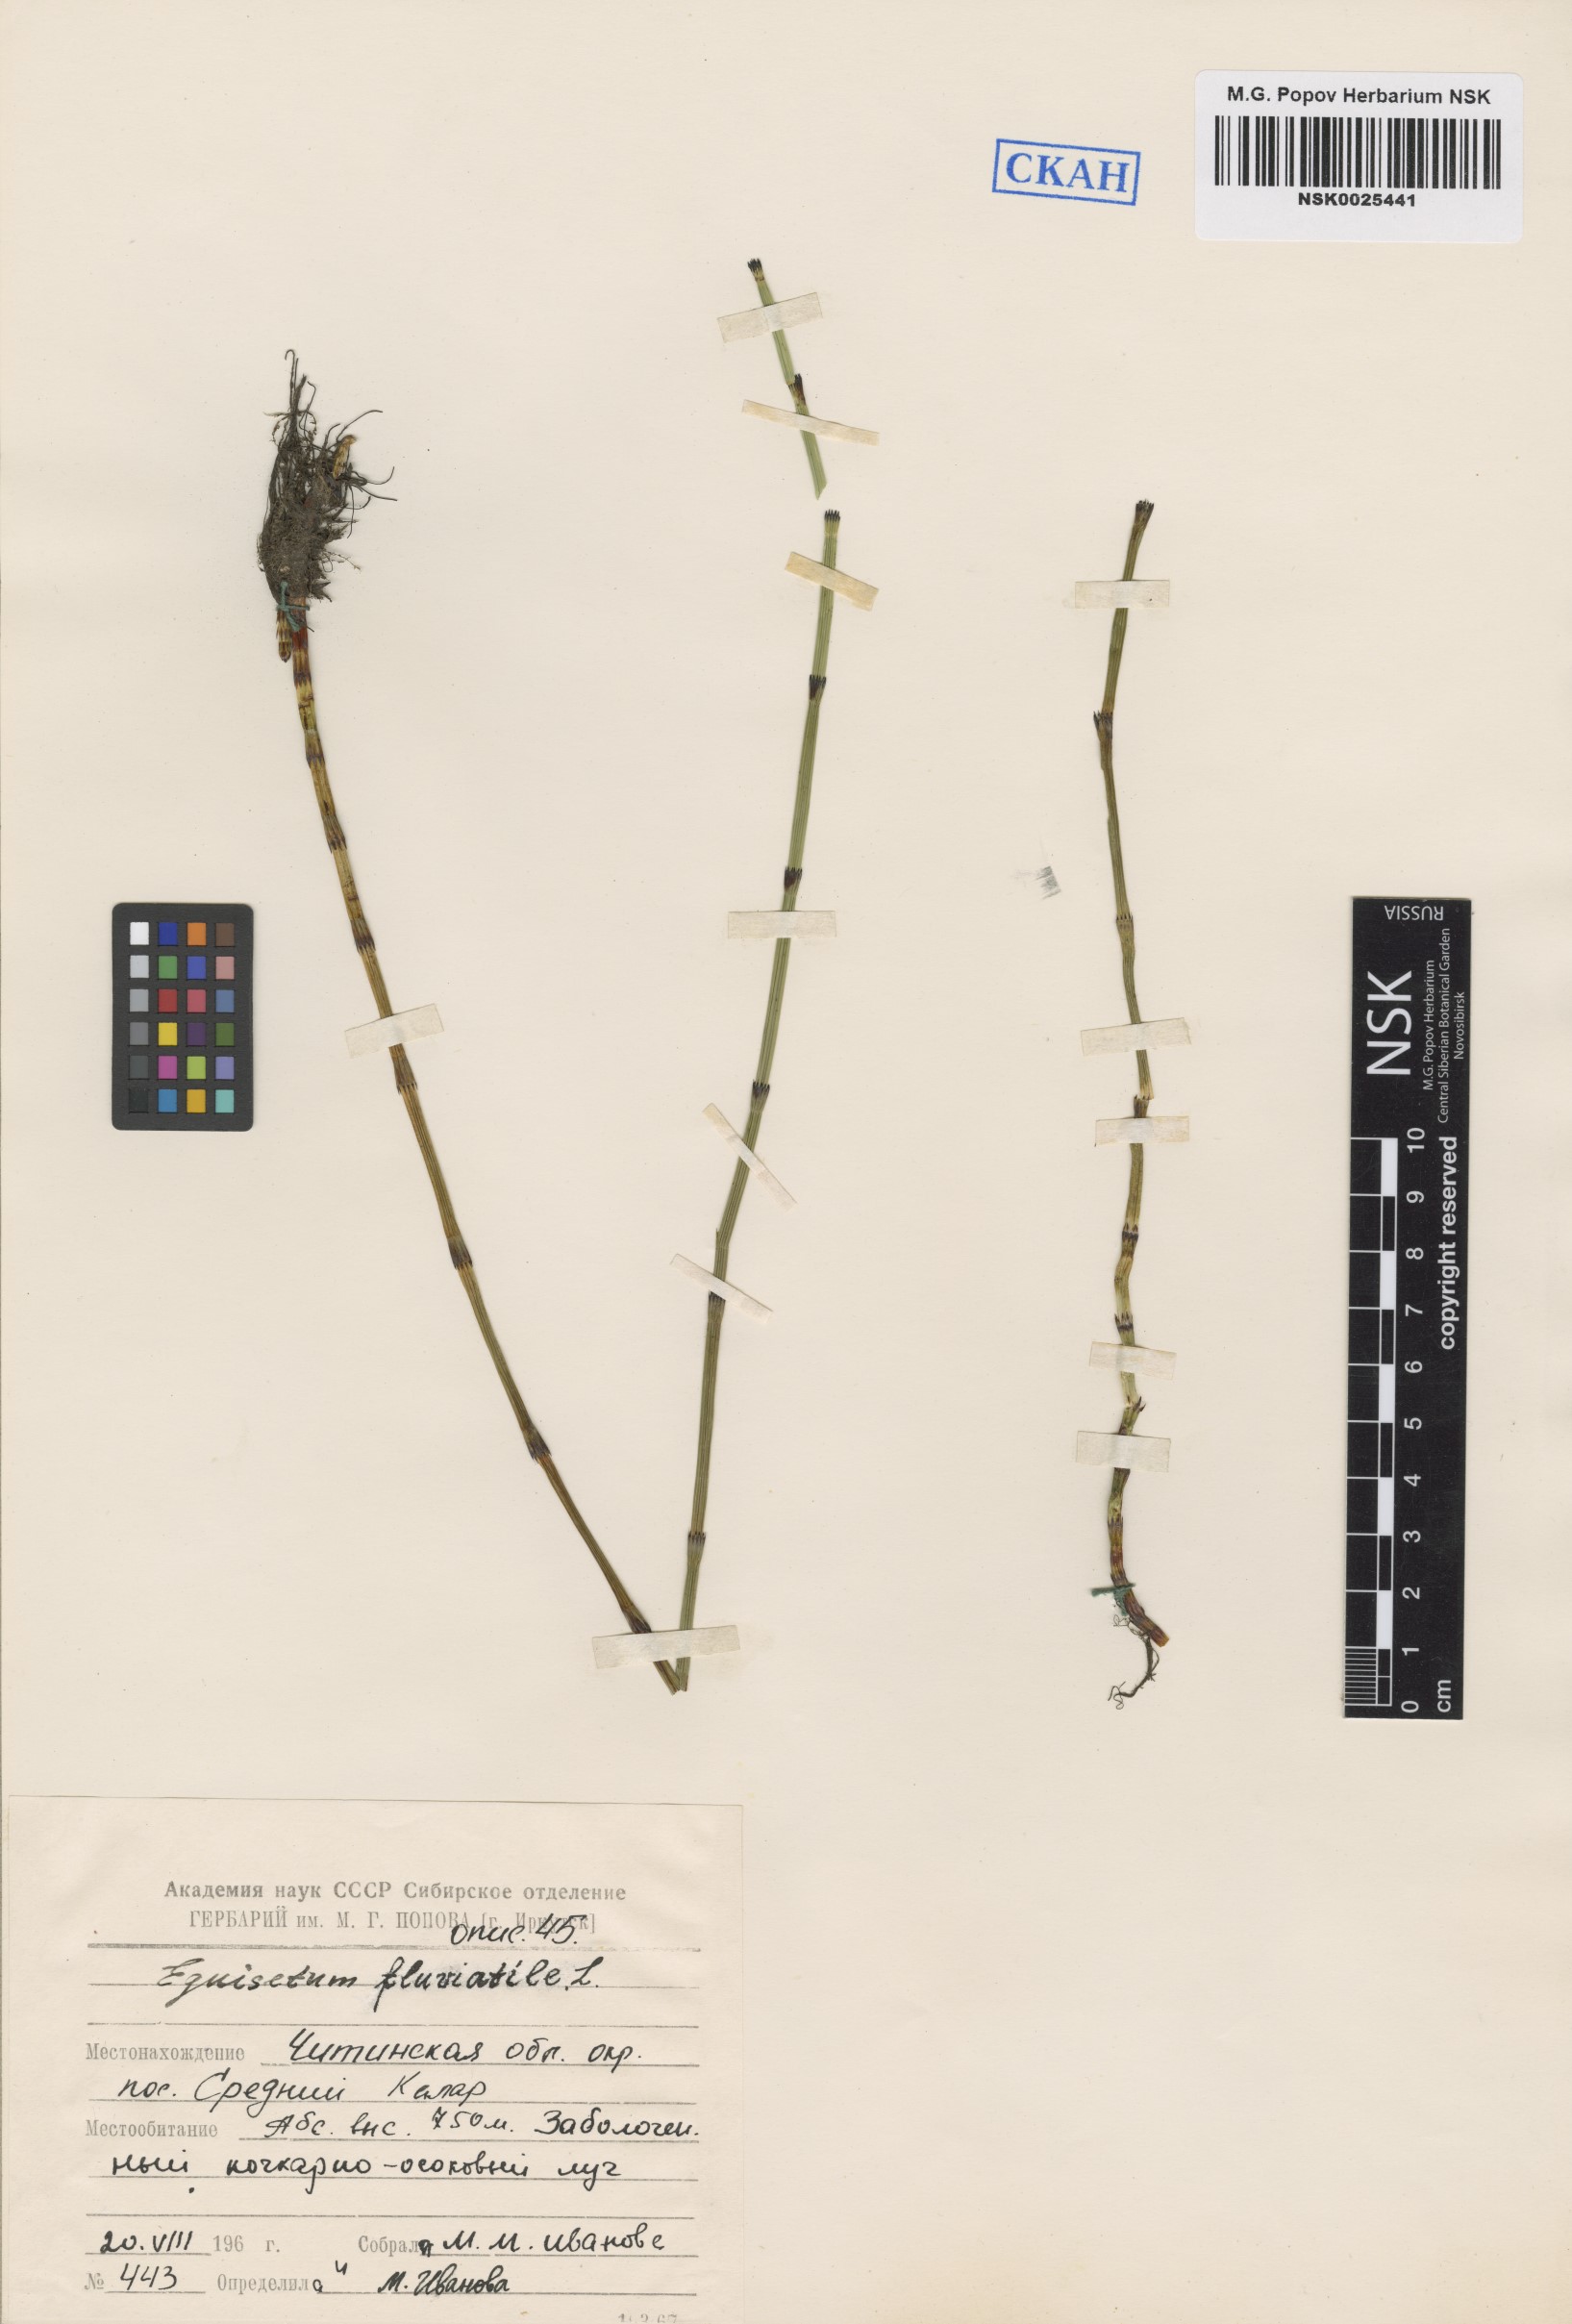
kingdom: Plantae
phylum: Tracheophyta
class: Polypodiopsida
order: Equisetales
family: Equisetaceae
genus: Equisetum
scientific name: Equisetum fluviatile
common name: Water horsetail
